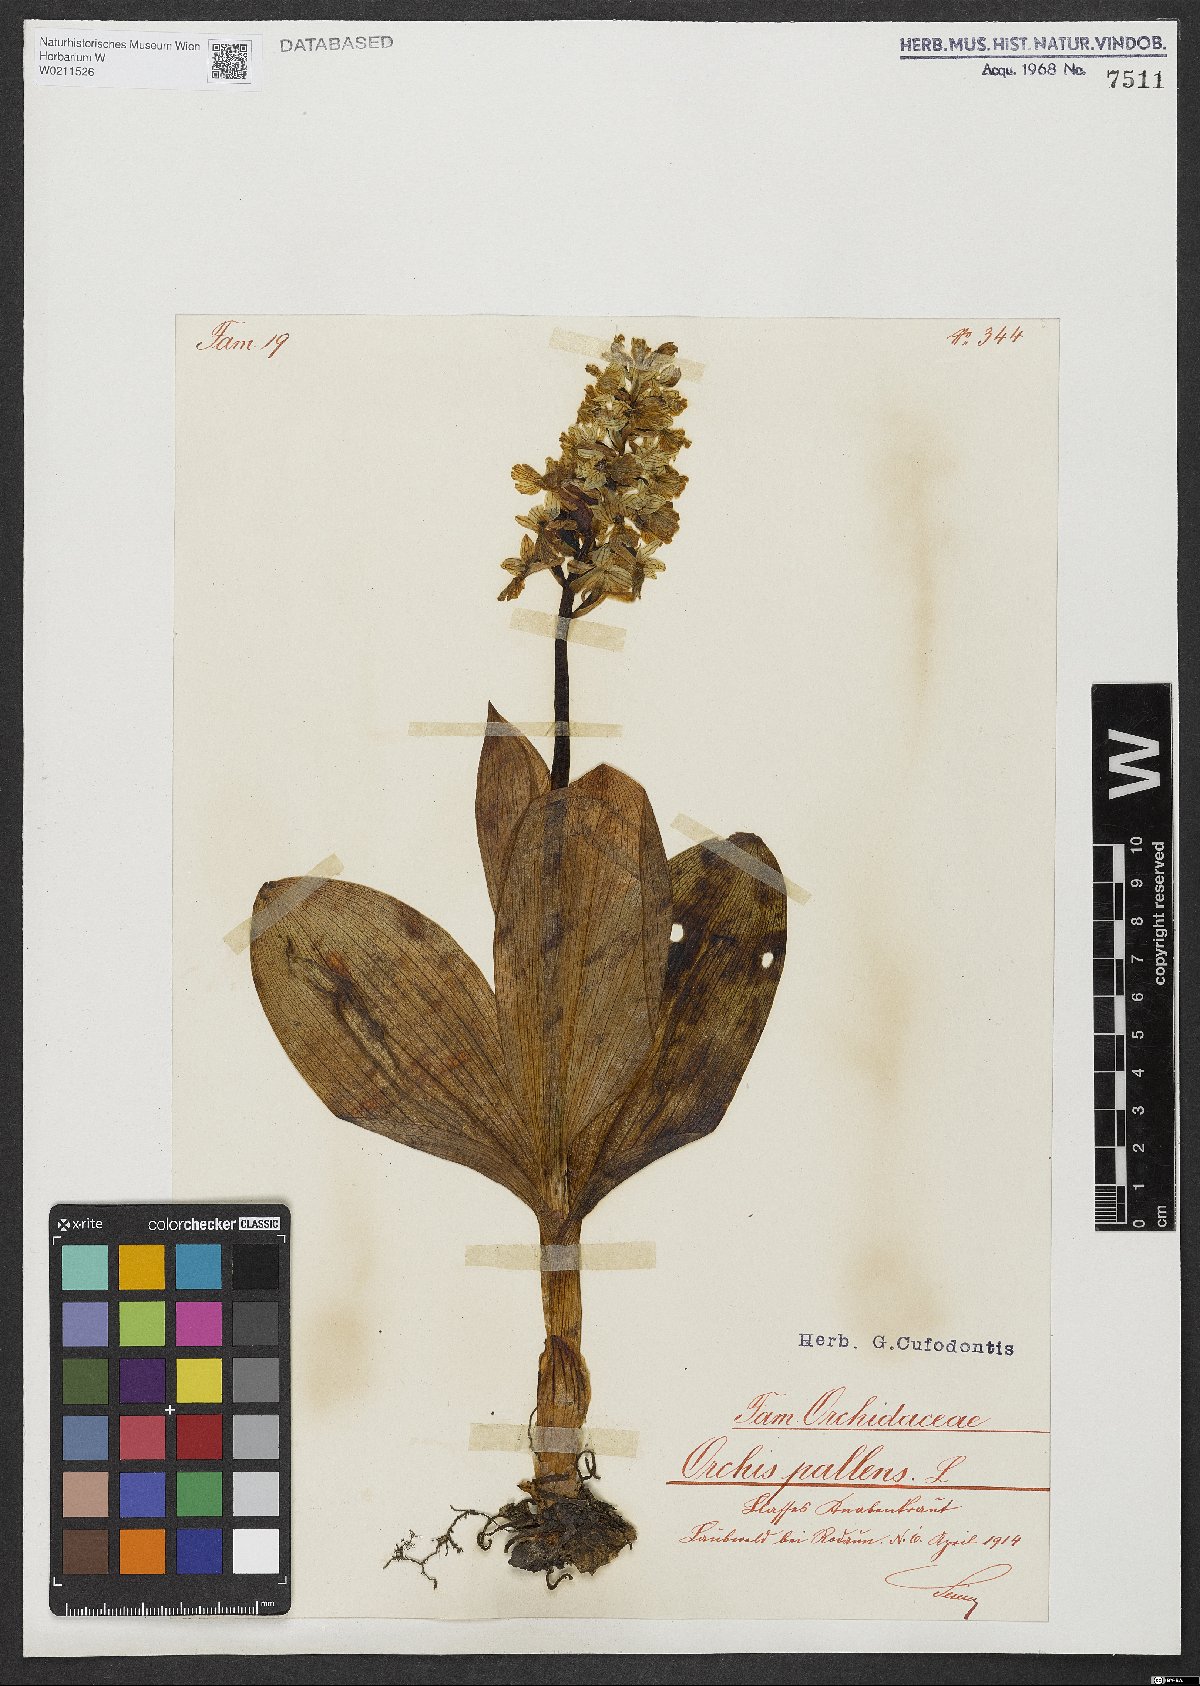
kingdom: Plantae
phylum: Tracheophyta
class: Liliopsida
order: Asparagales
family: Orchidaceae
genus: Orchis
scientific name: Orchis pallens
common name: Pale-flowered orchid
